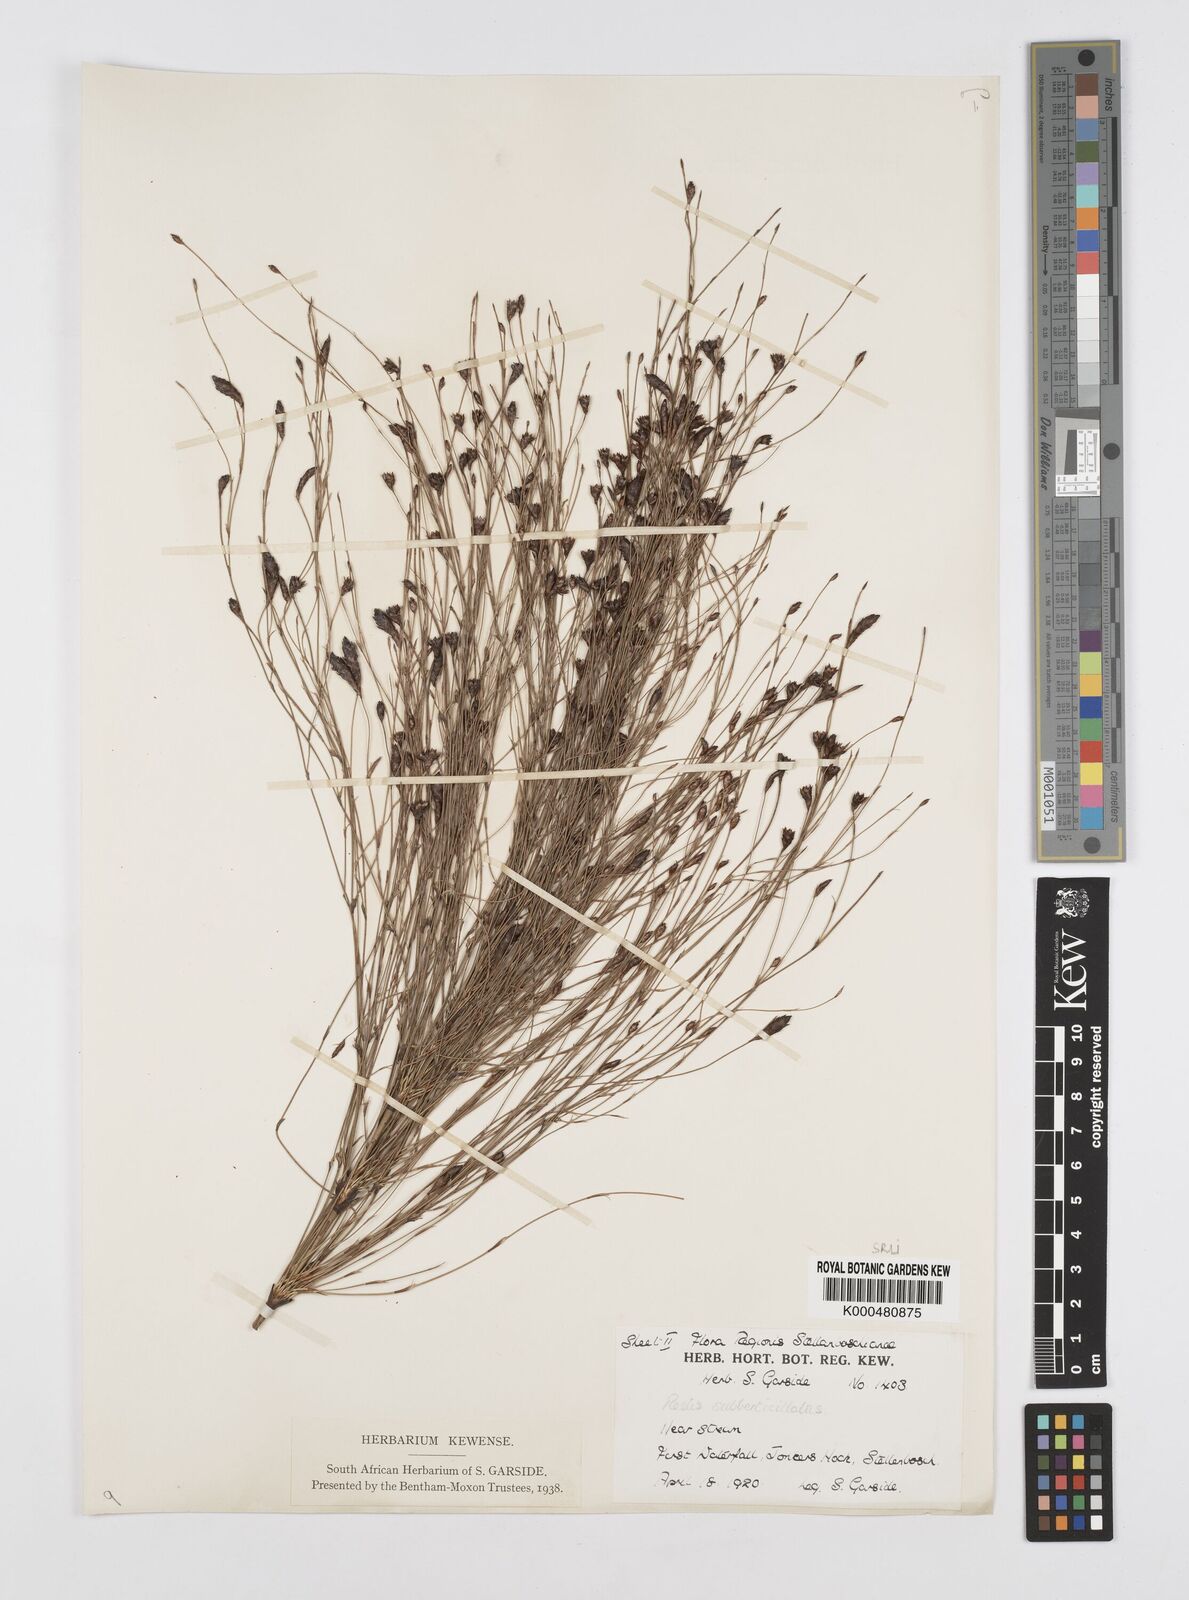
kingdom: Plantae
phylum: Tracheophyta
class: Liliopsida
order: Poales
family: Restionaceae
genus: Restio
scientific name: Restio subverticillatus
